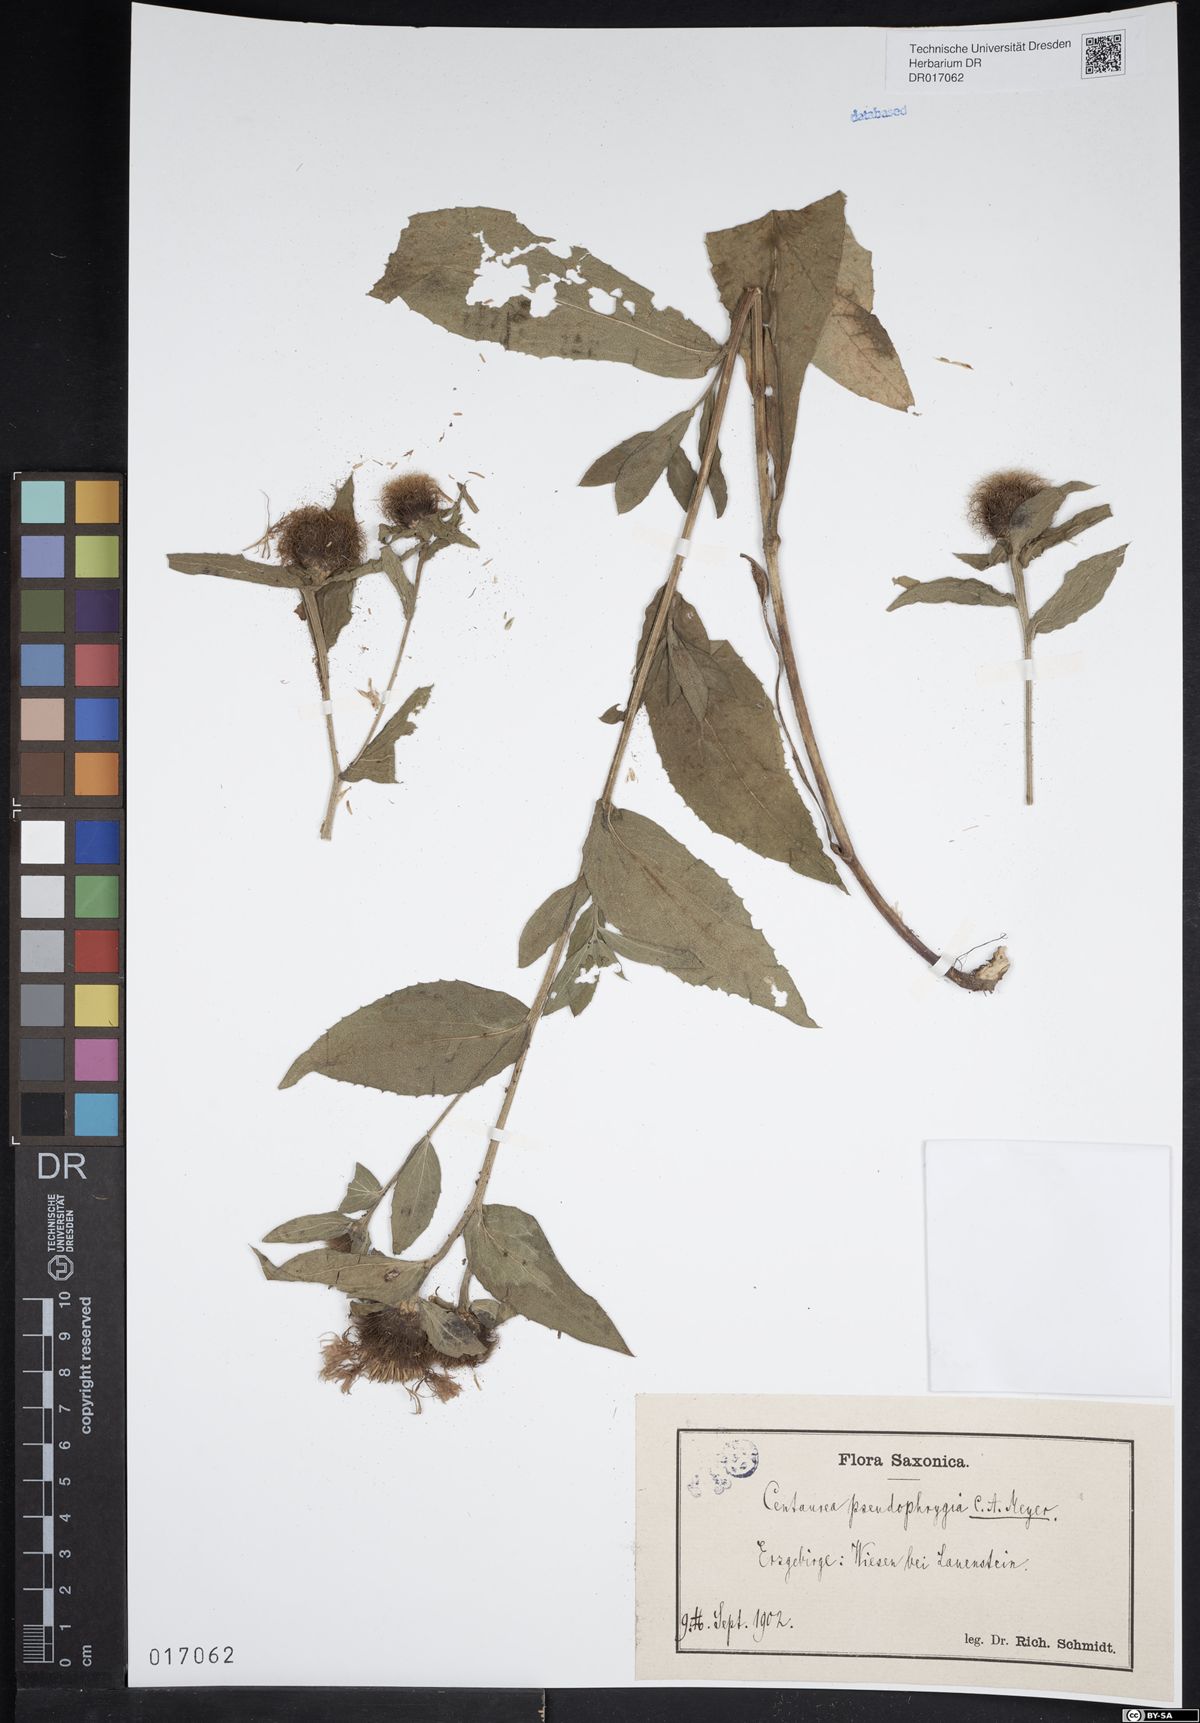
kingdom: Plantae
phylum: Tracheophyta
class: Magnoliopsida
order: Asterales
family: Asteraceae
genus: Centaurea
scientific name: Centaurea pseudophrygia
